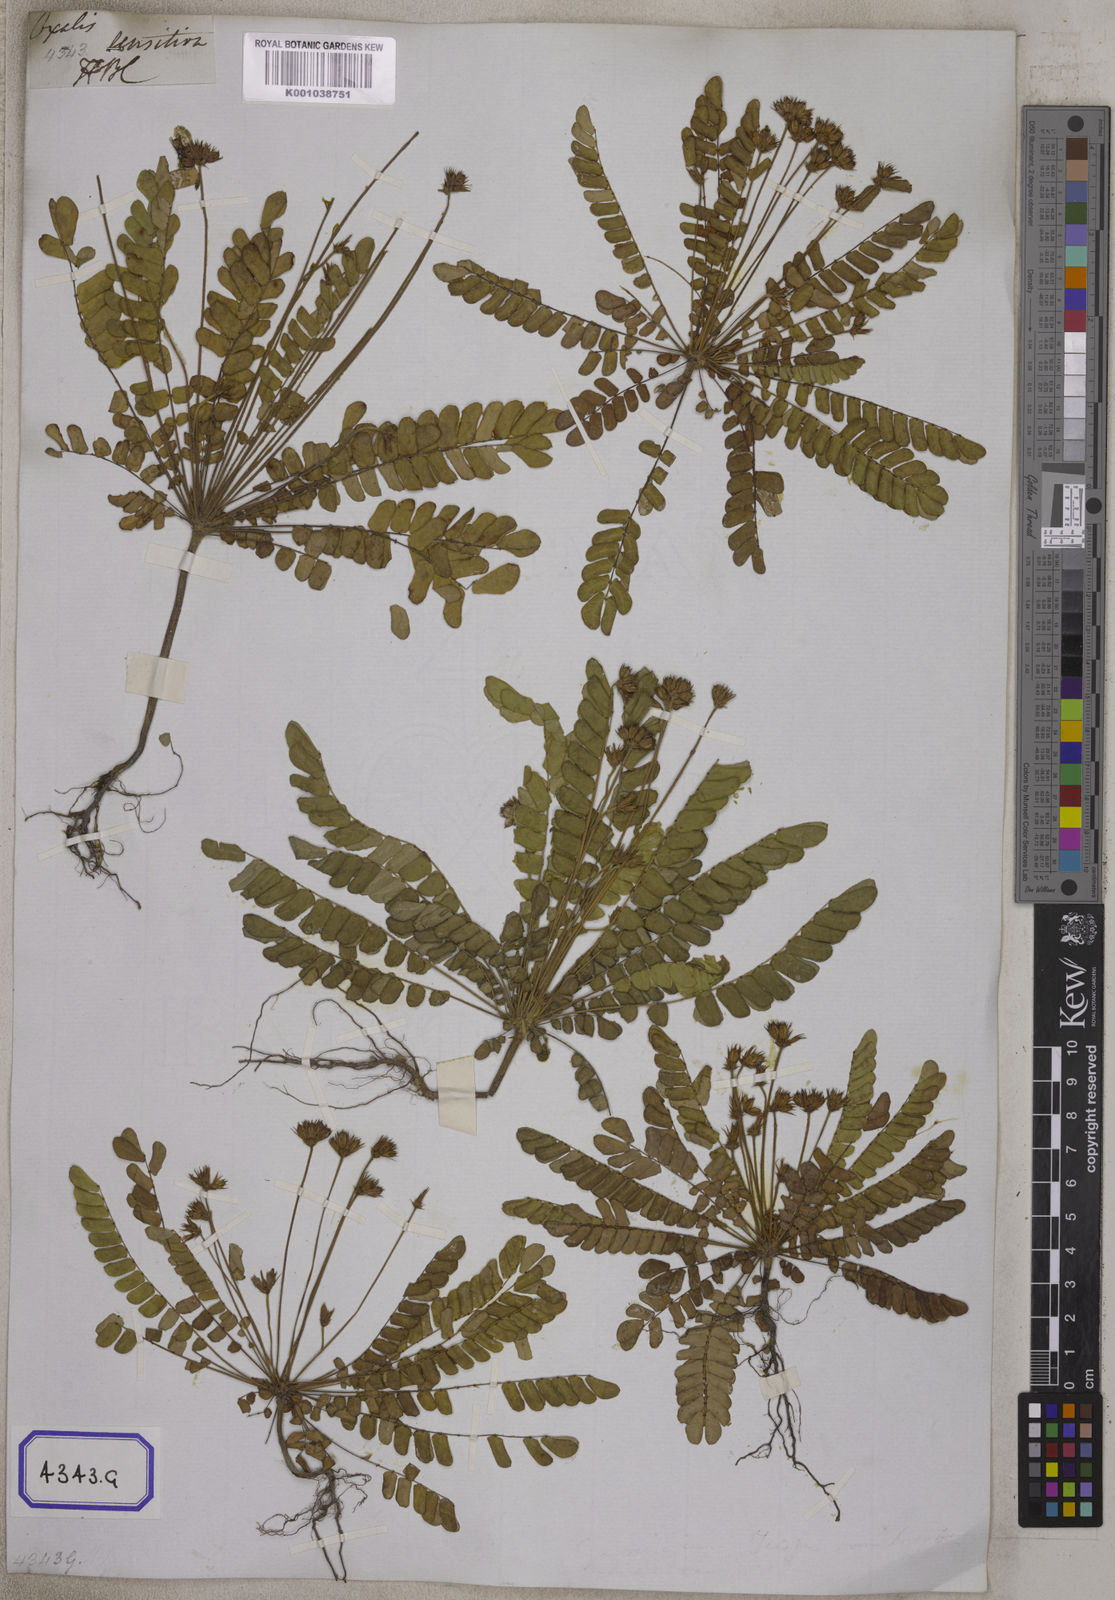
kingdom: Plantae
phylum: Tracheophyta
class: Magnoliopsida
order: Oxalidales
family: Oxalidaceae
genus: Biophytum
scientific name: Biophytum sensitivum
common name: Lifeplant
